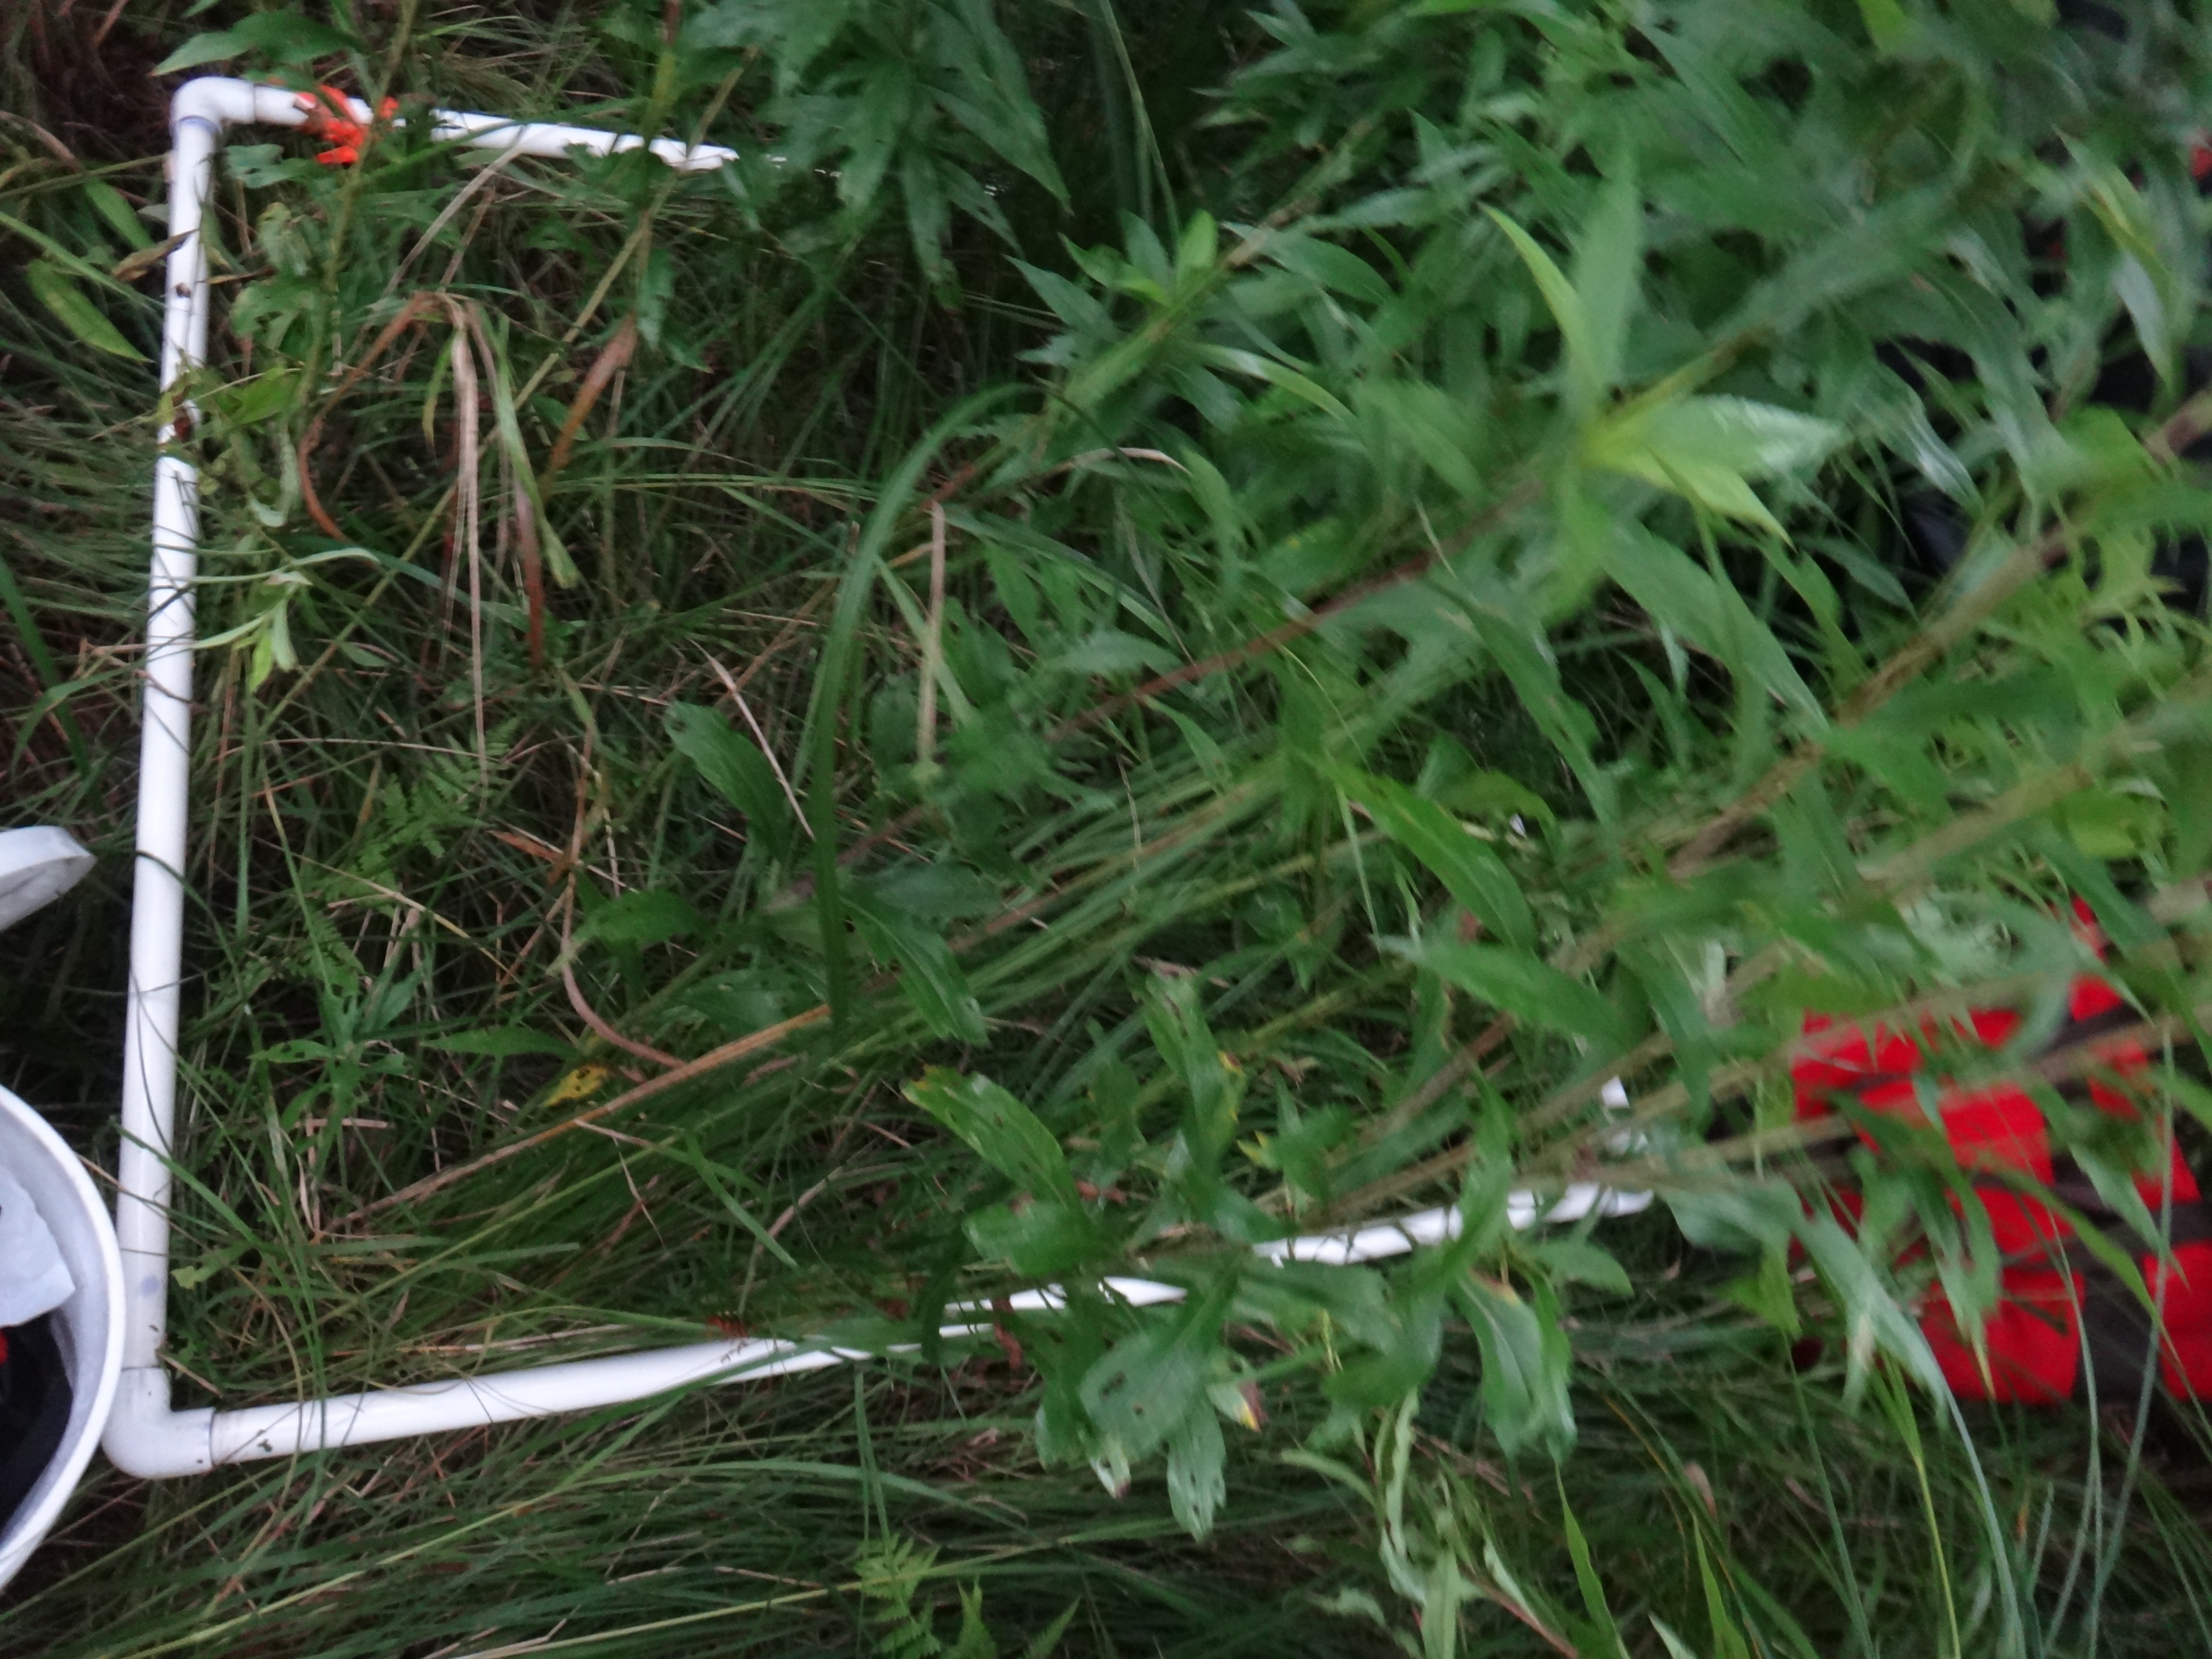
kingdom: Plantae
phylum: Tracheophyta
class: Magnoliopsida
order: Asterales
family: Asteraceae
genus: Solidago
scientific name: Solidago gigantea
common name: Giant goldenrod
